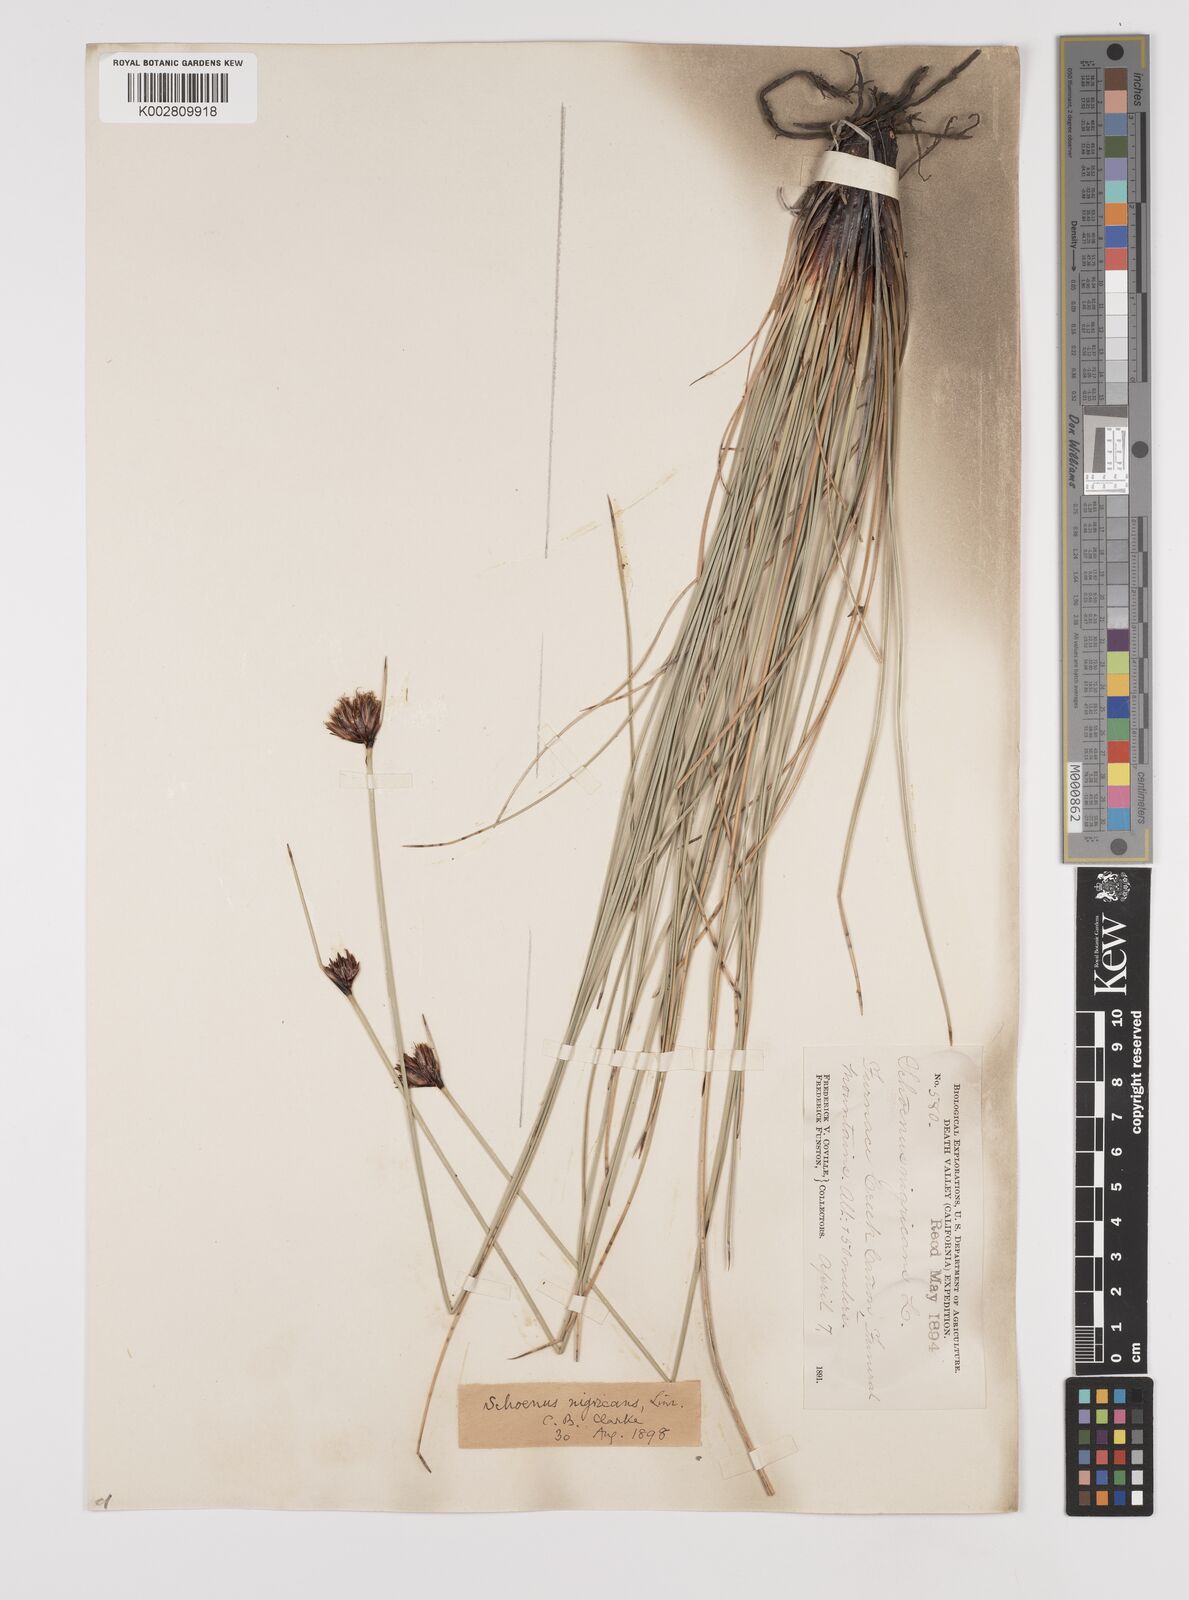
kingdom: Plantae
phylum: Tracheophyta
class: Liliopsida
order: Poales
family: Cyperaceae
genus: Schoenus
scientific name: Schoenus nigricans
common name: Black bog-rush
